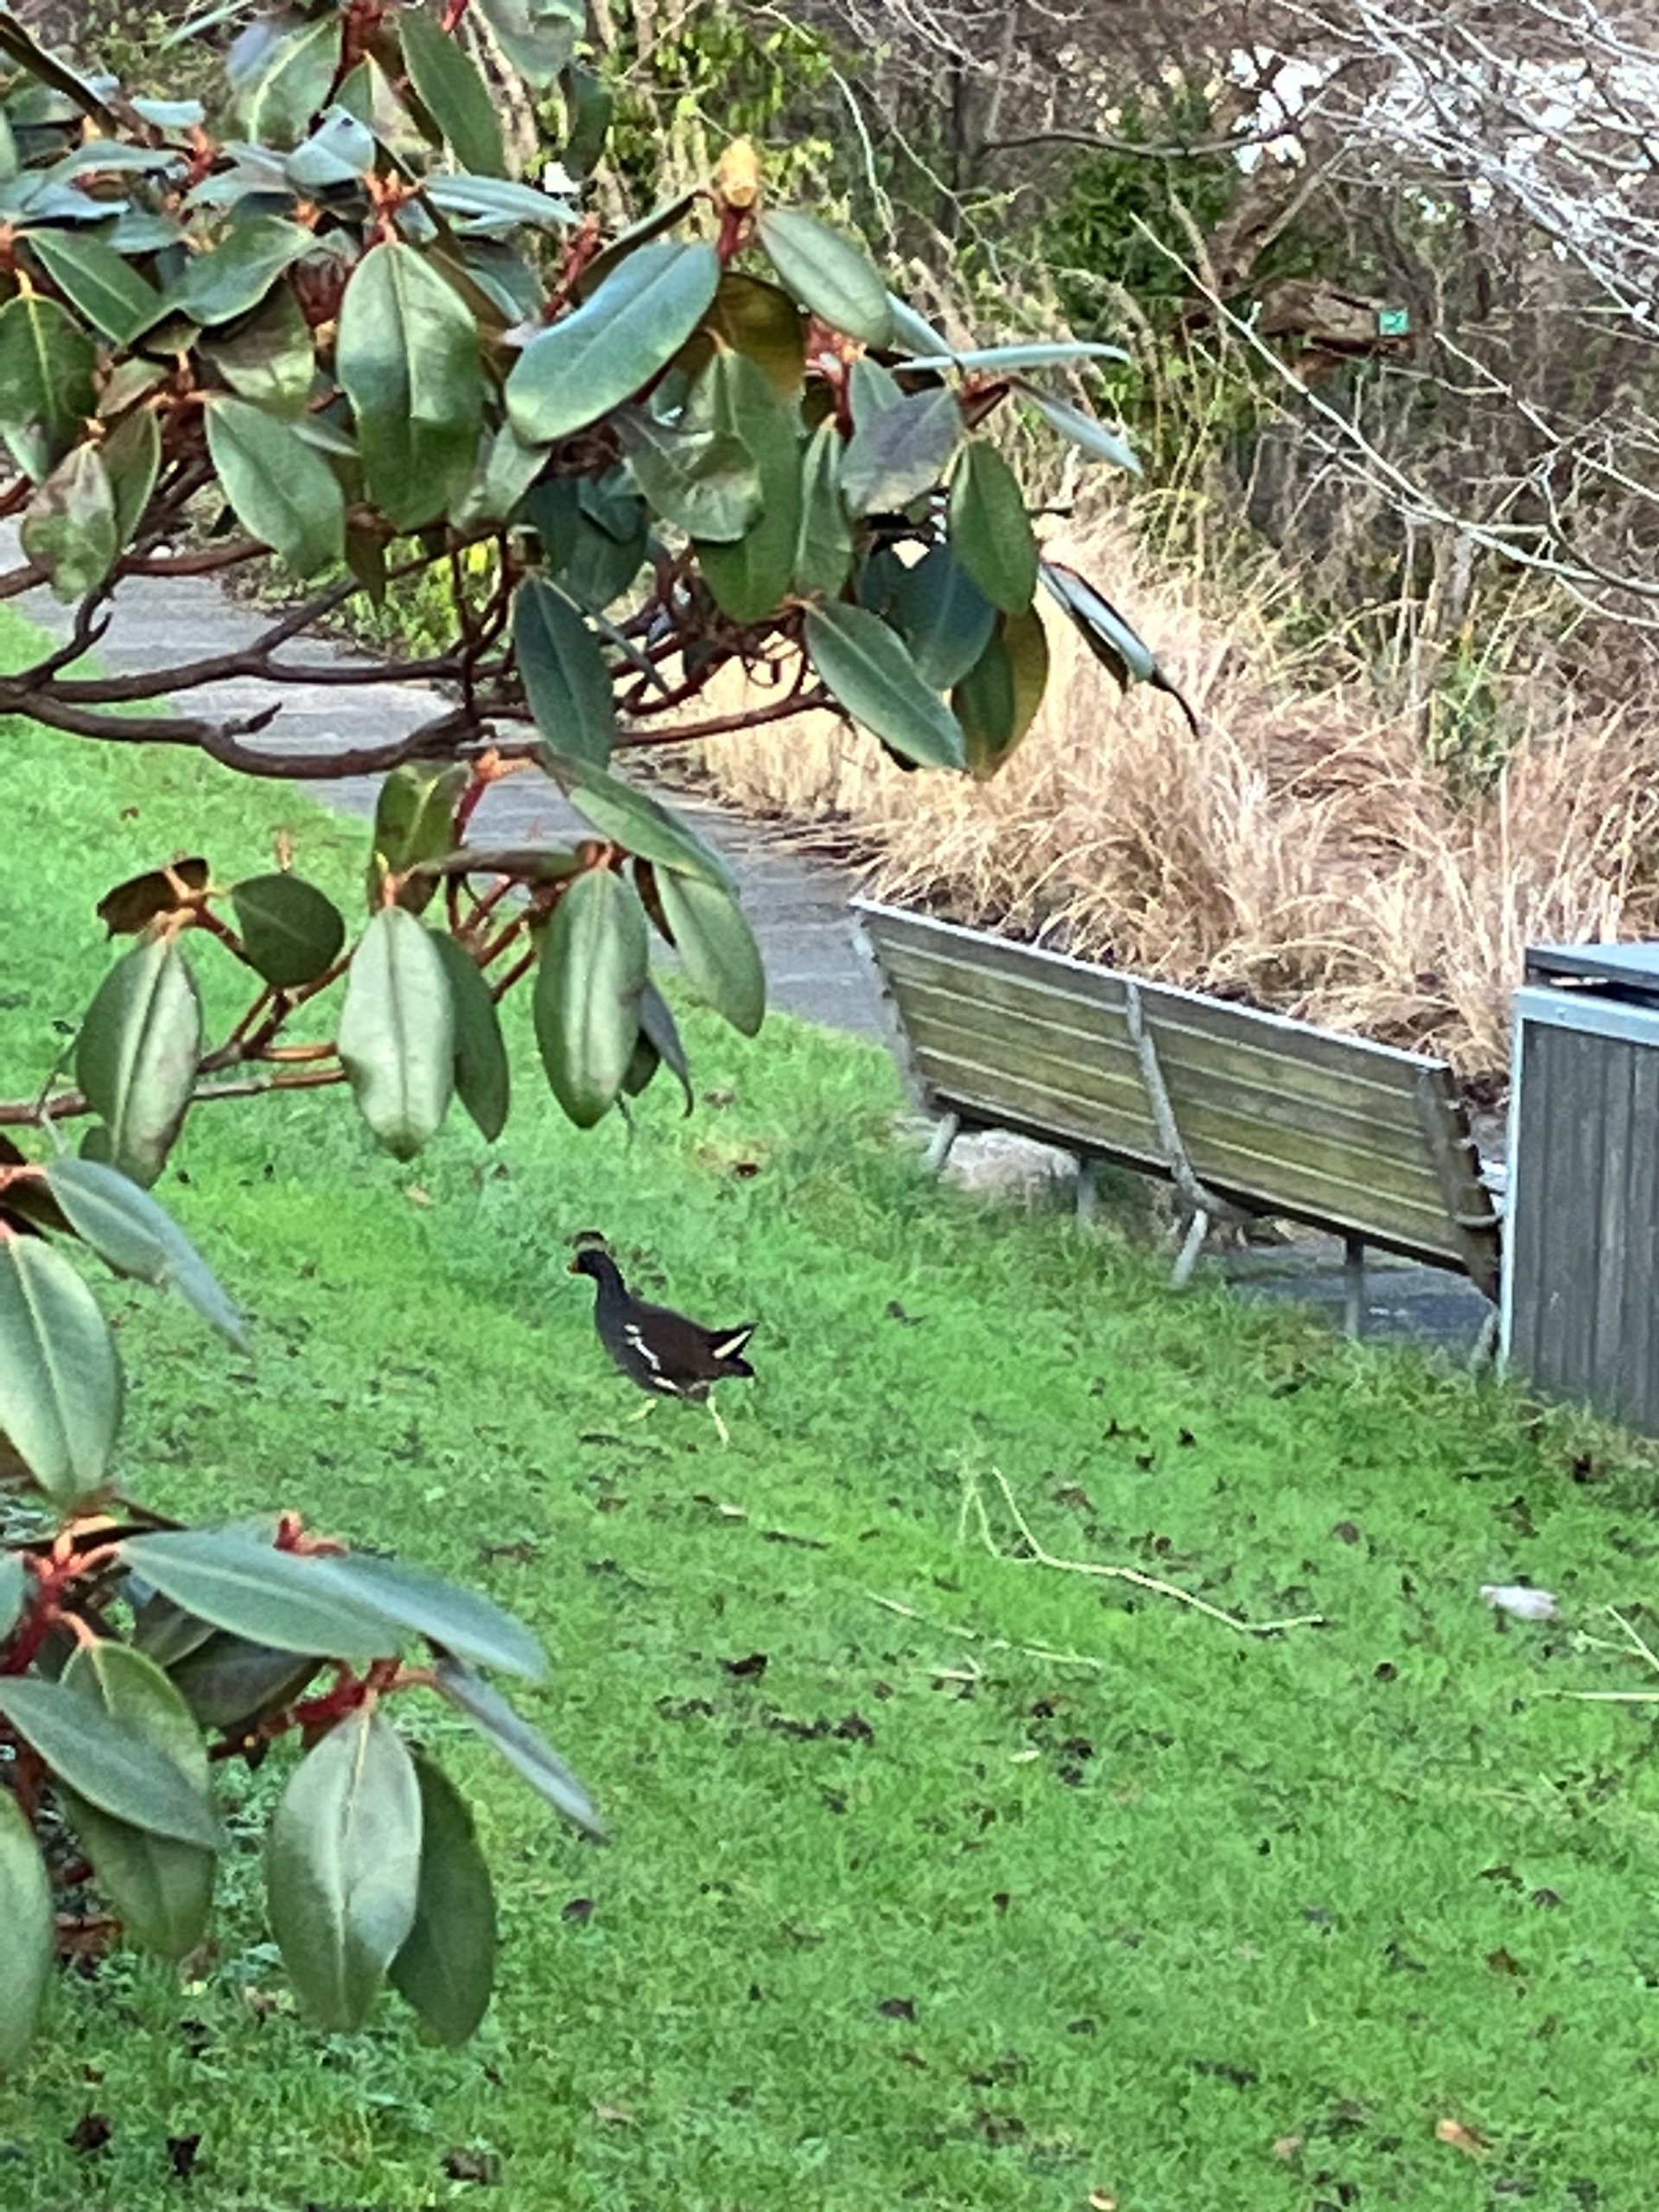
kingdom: Animalia
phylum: Chordata
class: Aves
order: Gruiformes
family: Rallidae
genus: Gallinula
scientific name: Gallinula chloropus
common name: Grønbenet rørhøne
